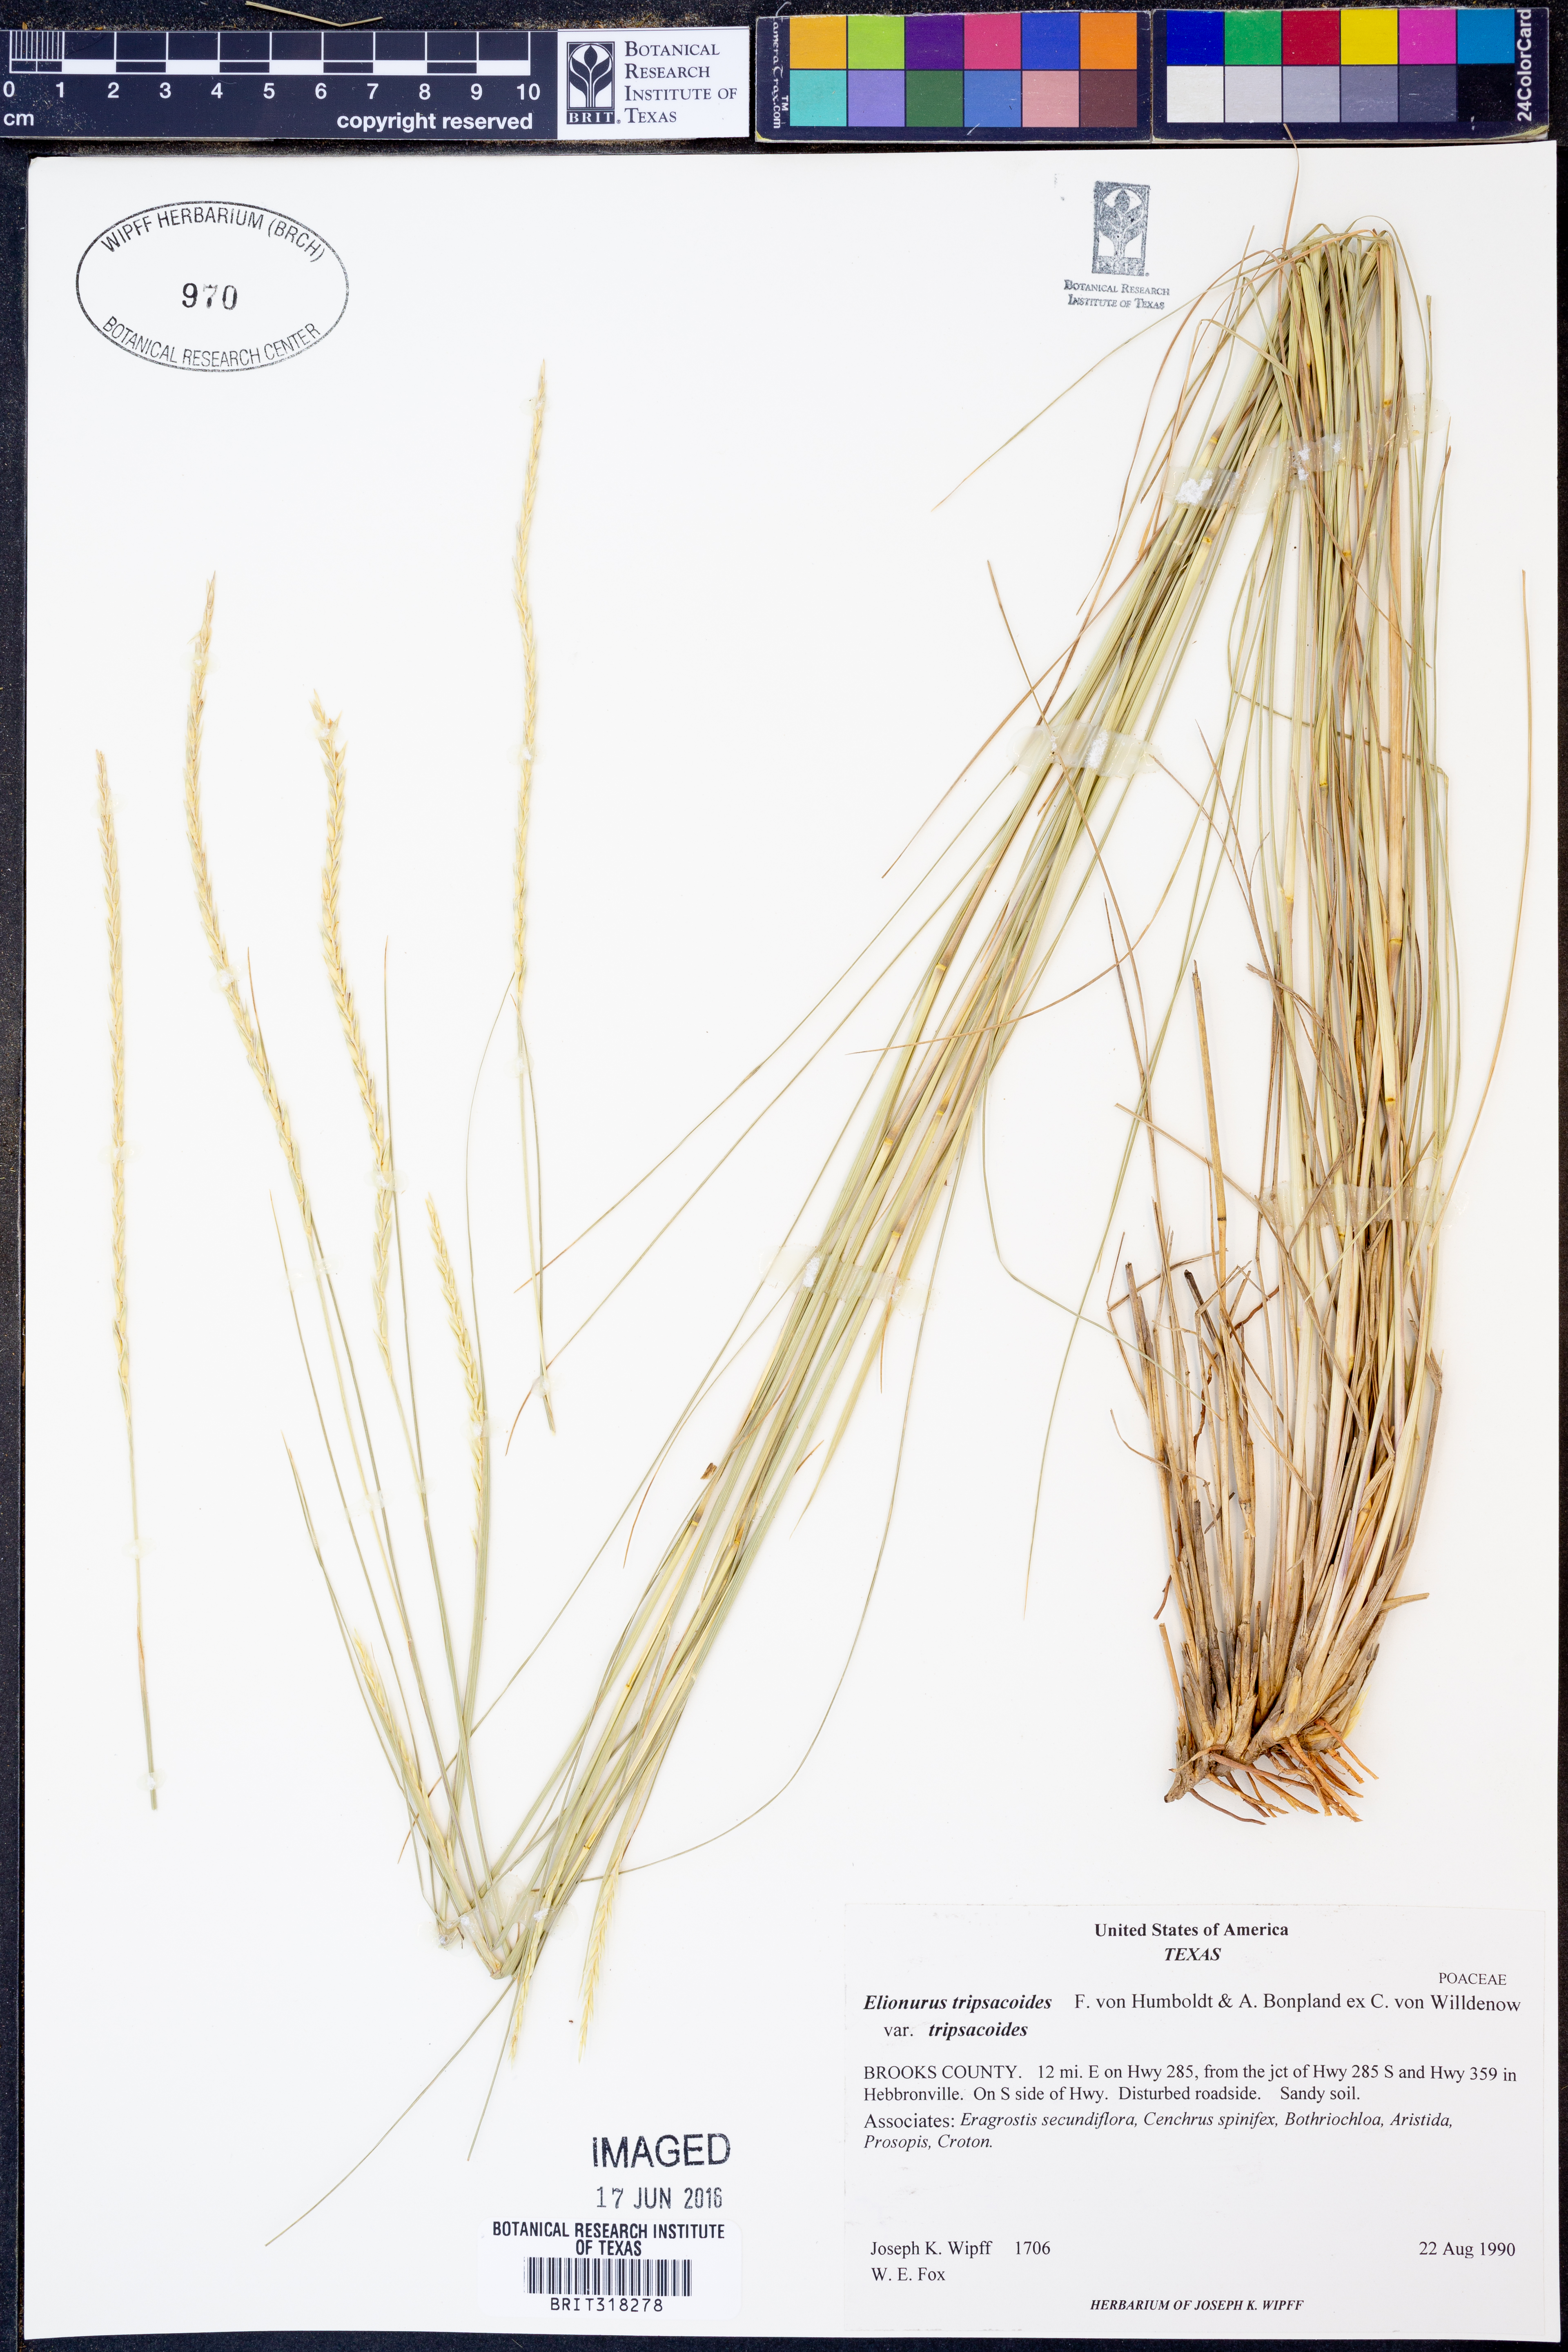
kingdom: Plantae
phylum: Tracheophyta
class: Liliopsida
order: Poales
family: Poaceae
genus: Elionurus
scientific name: Elionurus tripsacoides
